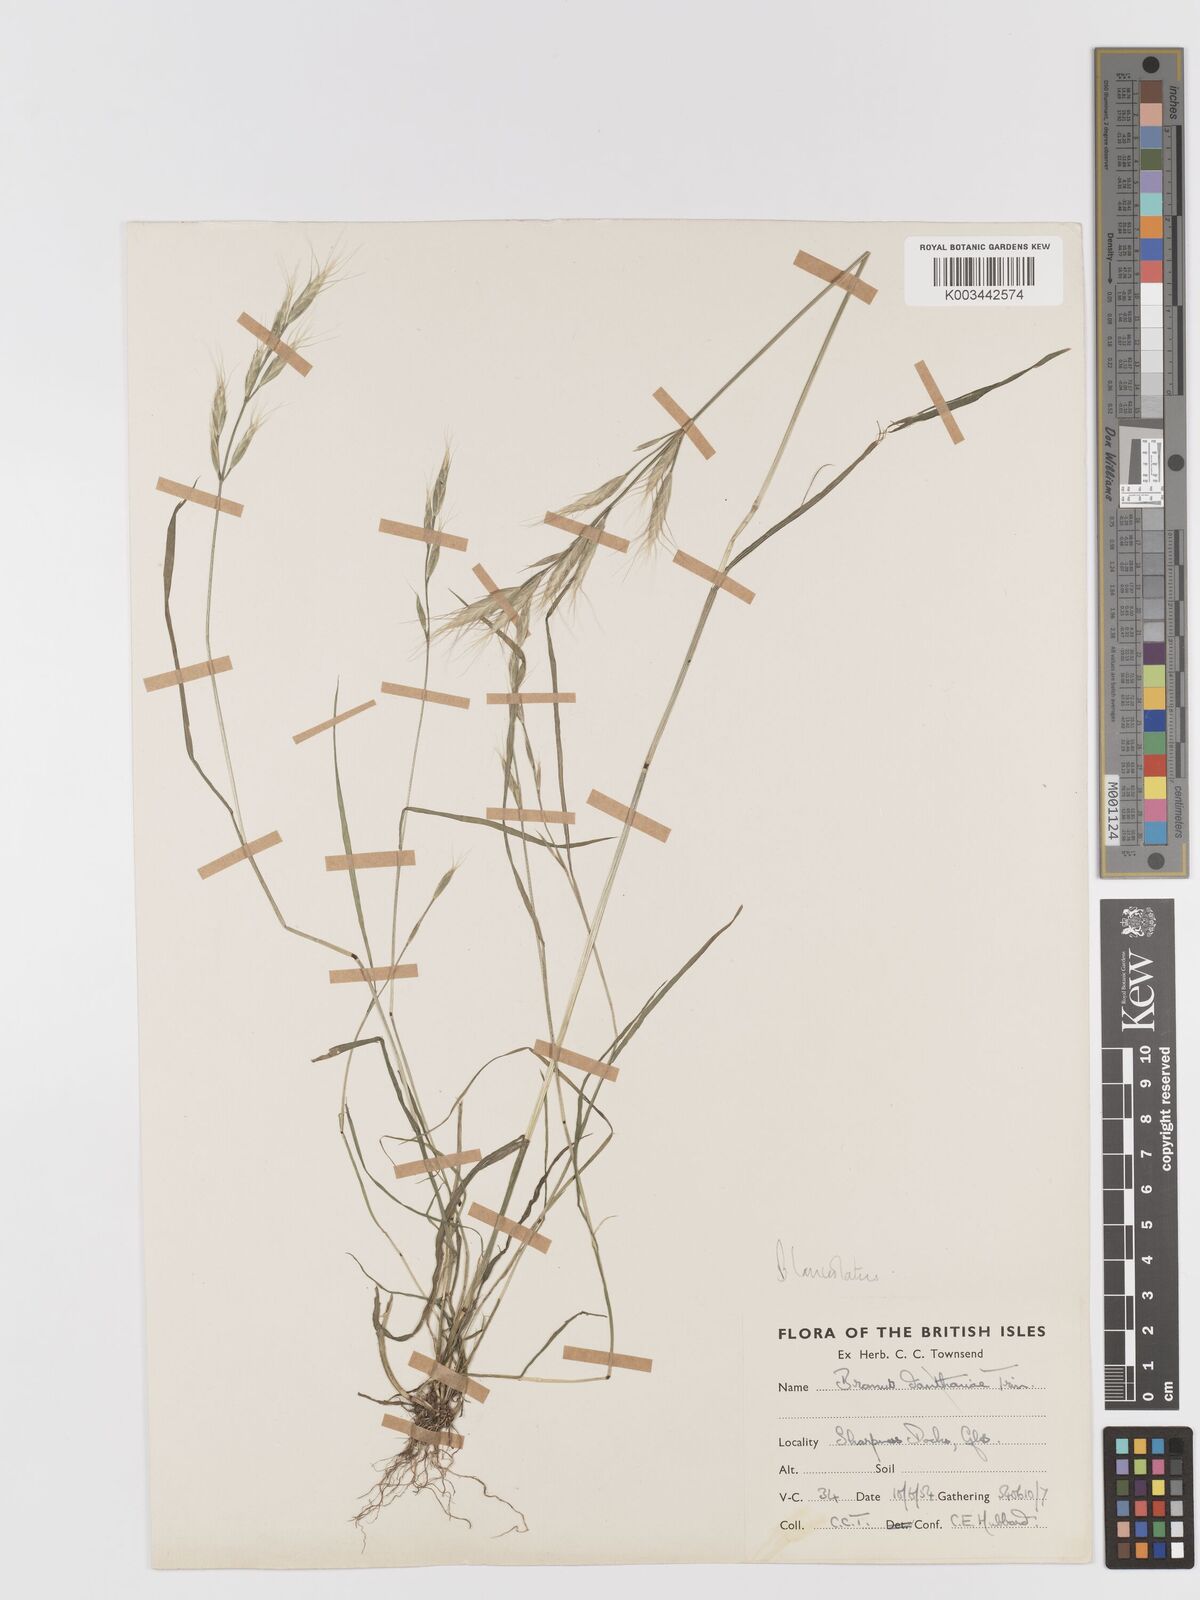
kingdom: Plantae
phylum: Tracheophyta
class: Liliopsida
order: Poales
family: Poaceae
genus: Bromus
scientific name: Bromus lanceolatus
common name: Mediterranean brome
